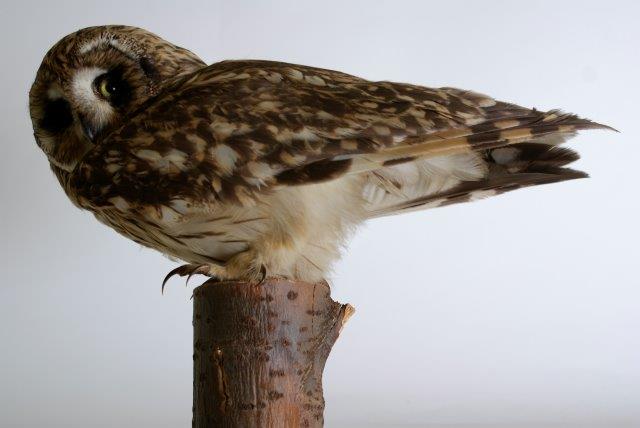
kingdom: Animalia
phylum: Chordata
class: Aves
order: Strigiformes
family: Strigidae
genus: Asio
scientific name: Asio flammeus
